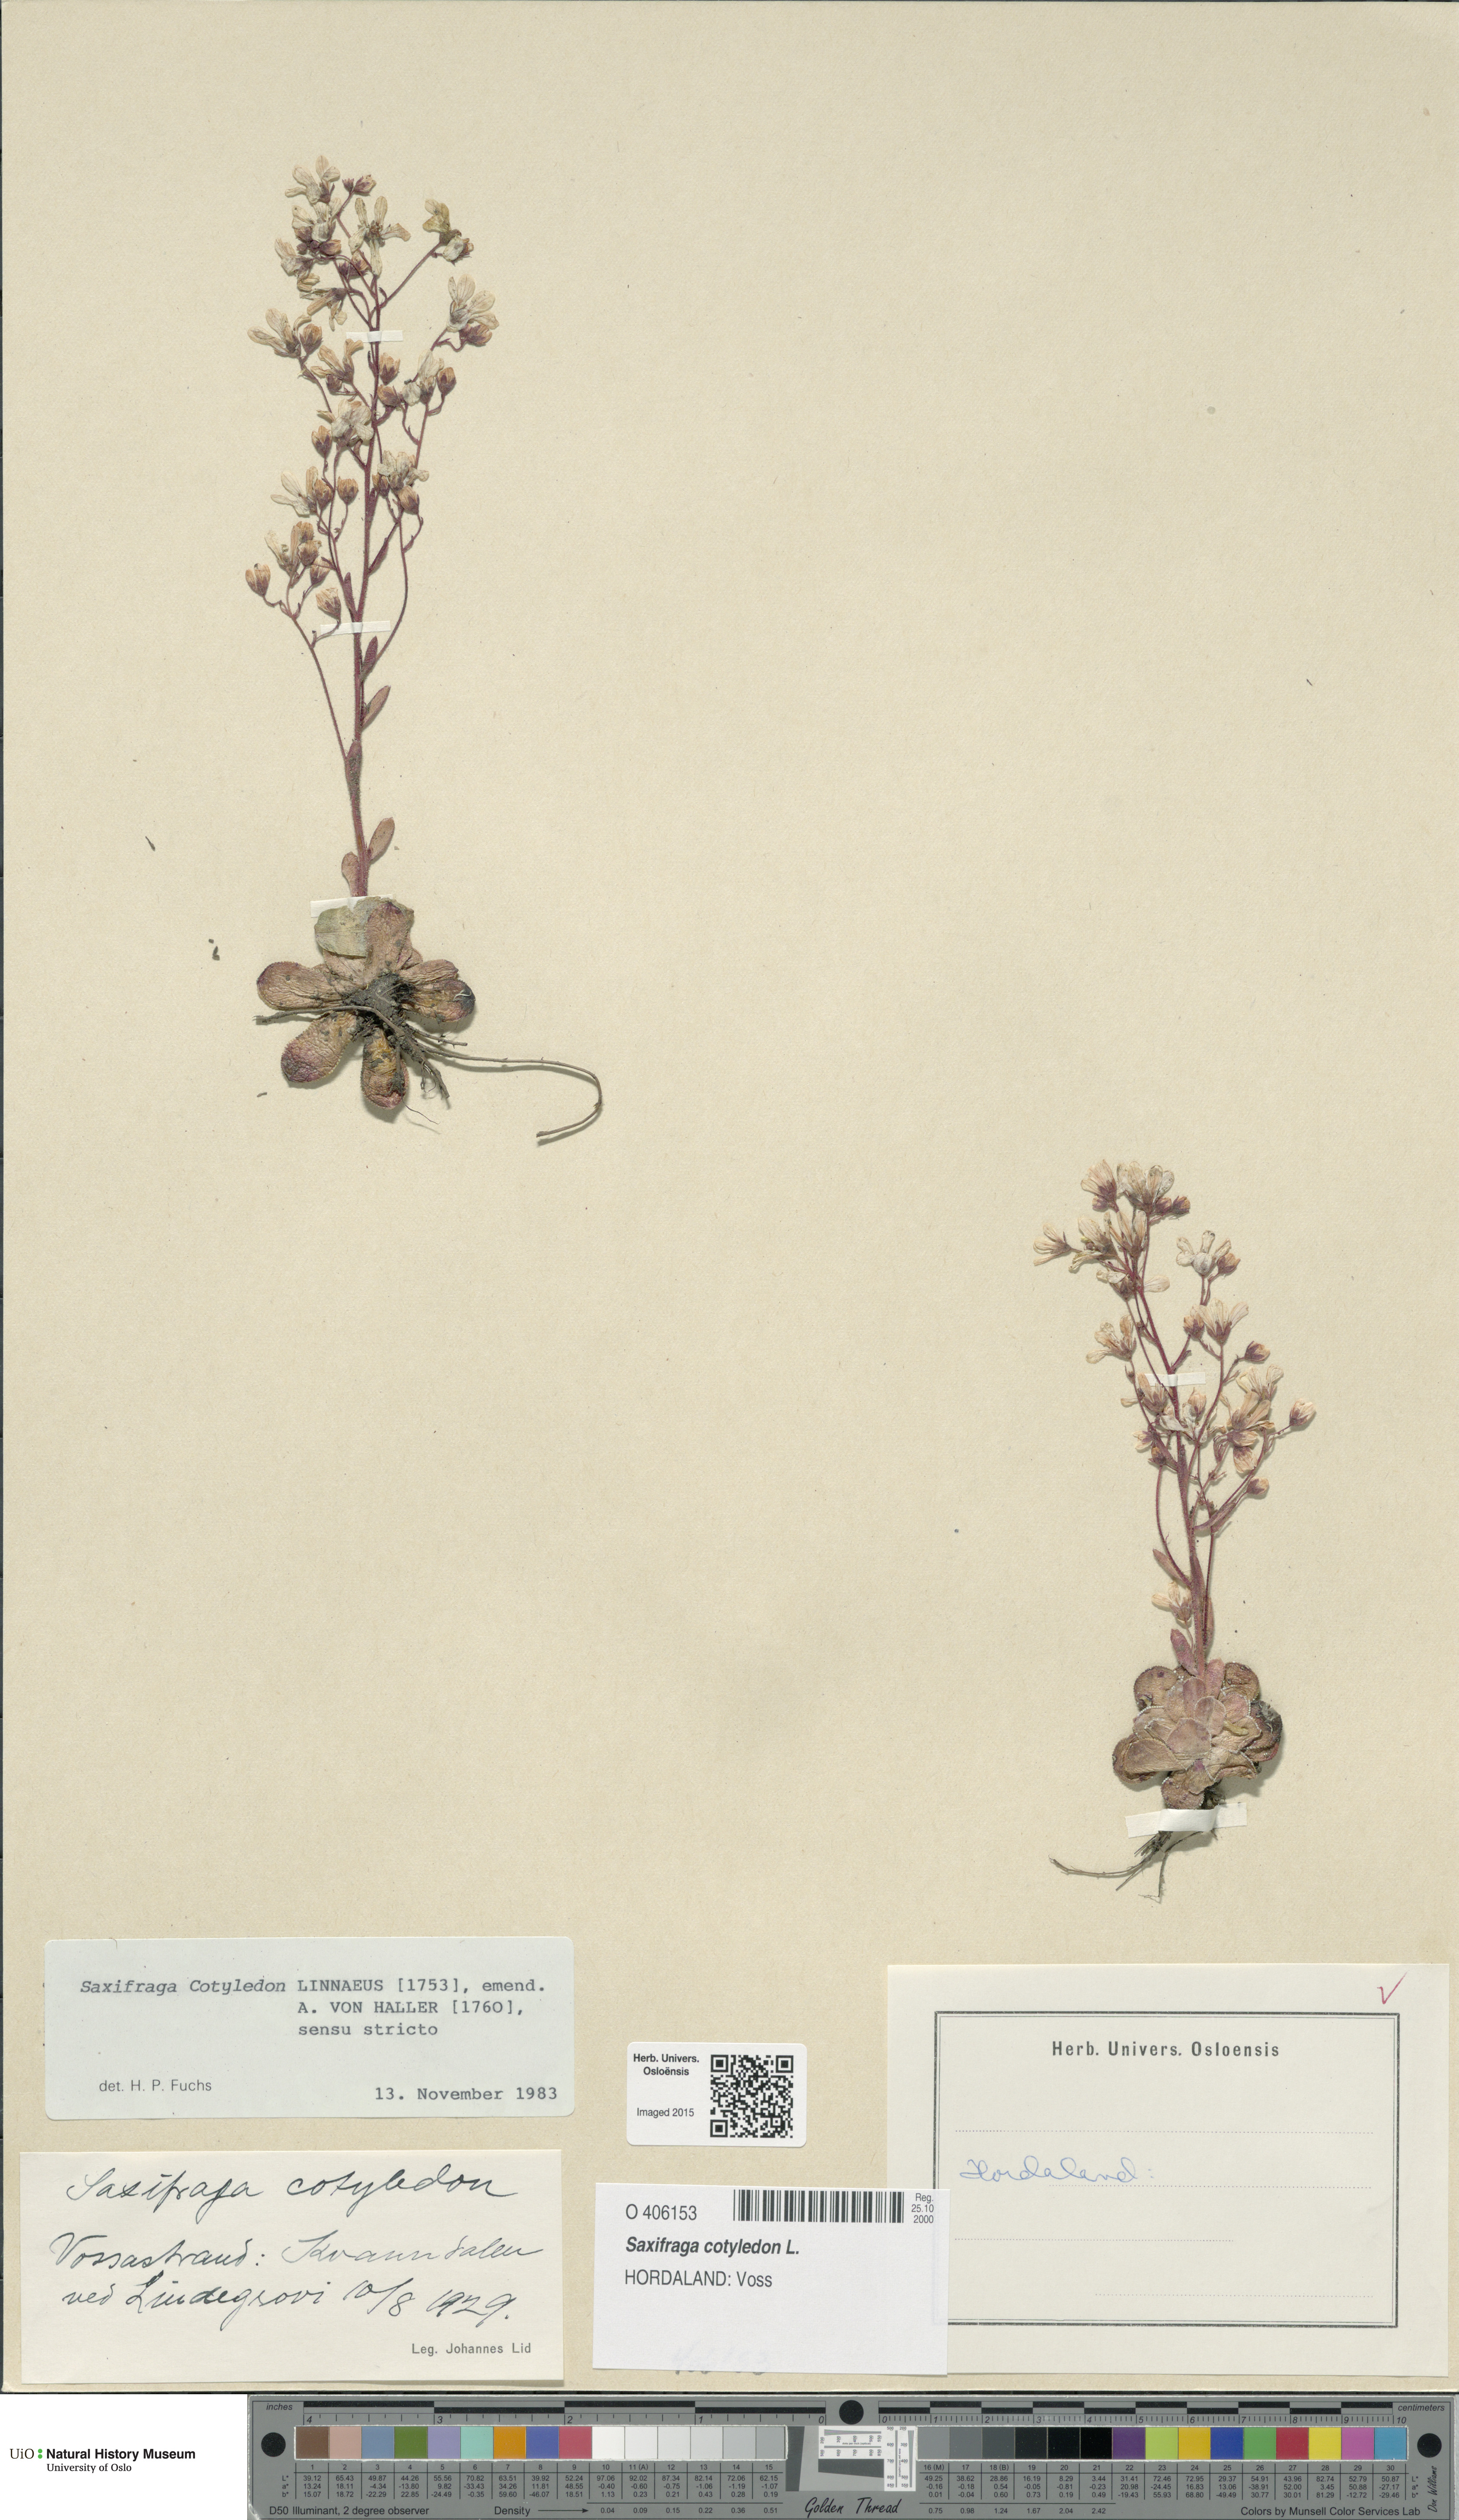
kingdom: Plantae
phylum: Tracheophyta
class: Magnoliopsida
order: Saxifragales
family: Saxifragaceae
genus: Saxifraga
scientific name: Saxifraga cotyledon
